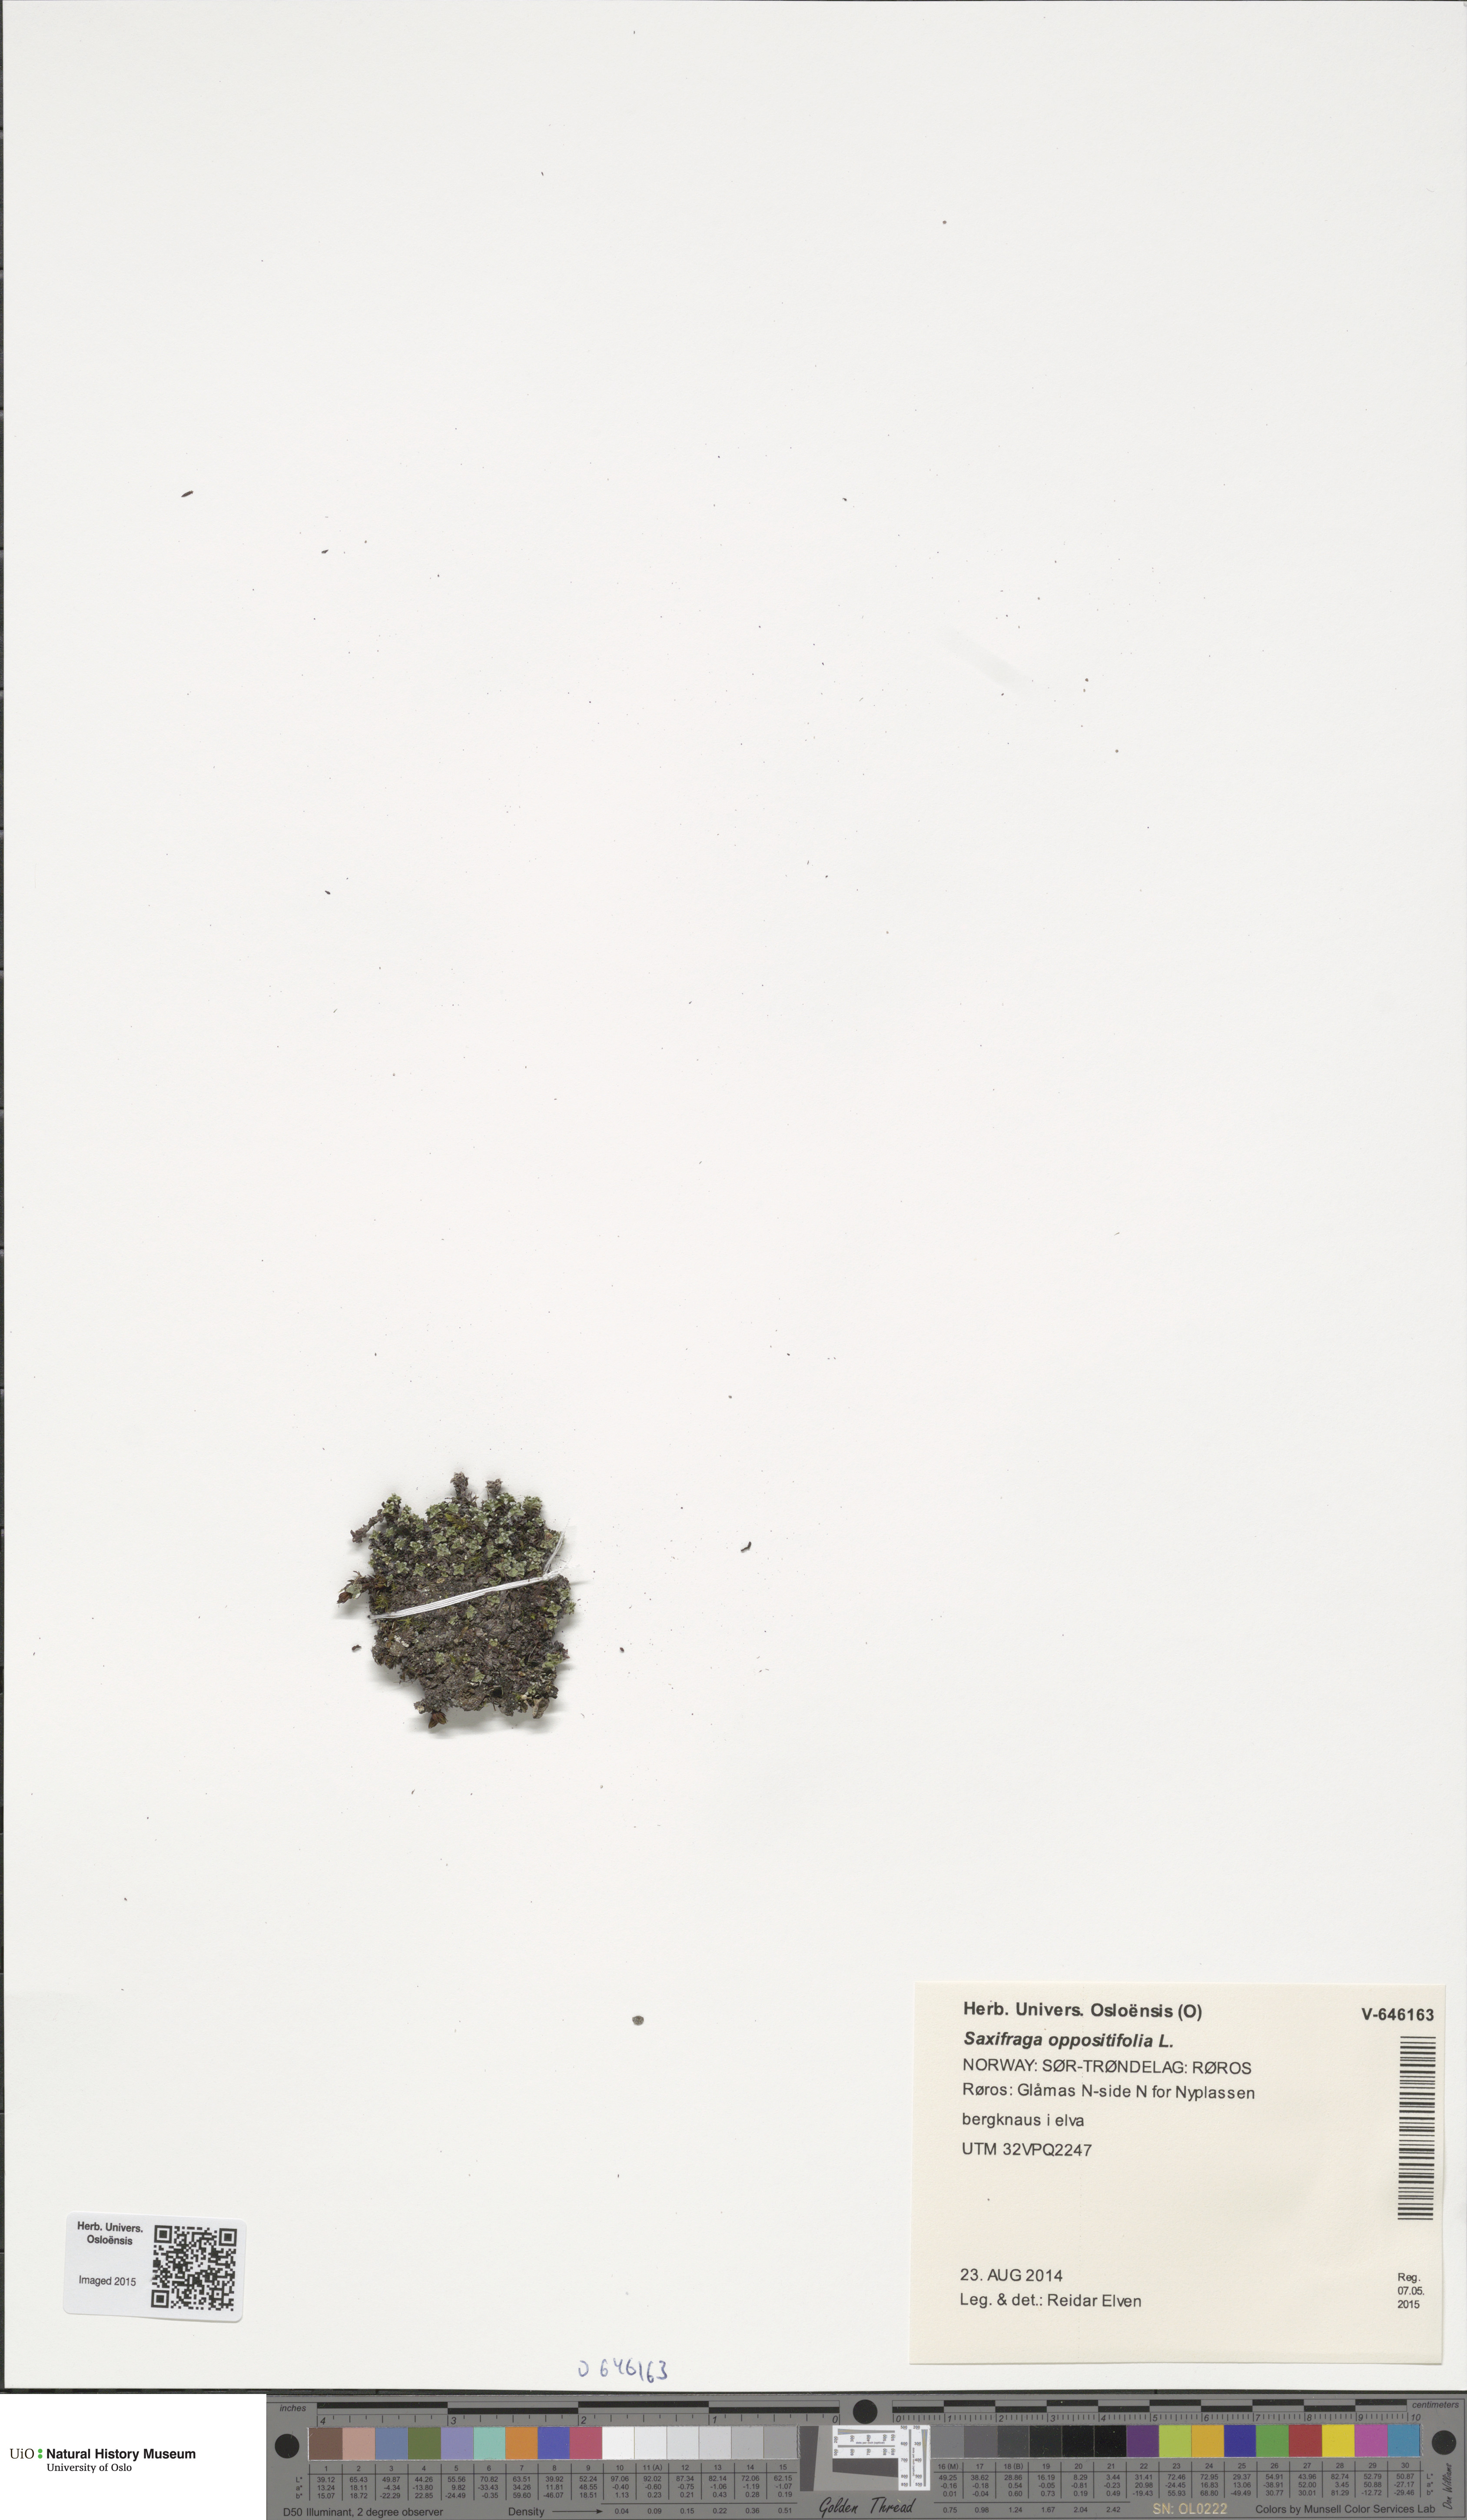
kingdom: Plantae
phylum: Tracheophyta
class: Magnoliopsida
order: Saxifragales
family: Saxifragaceae
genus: Saxifraga
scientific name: Saxifraga oppositifolia
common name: Purple saxifrage
